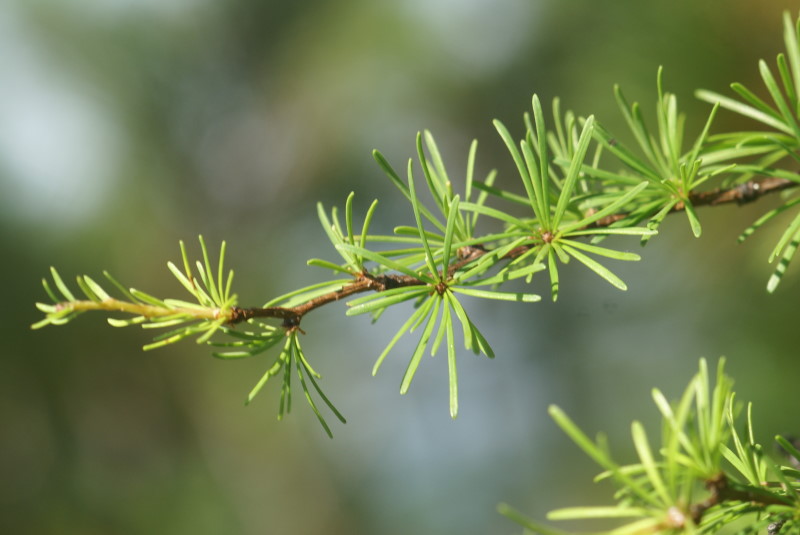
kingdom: Plantae
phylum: Tracheophyta
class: Pinopsida
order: Pinales
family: Pinaceae
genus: Larix
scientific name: Larix gmelinii
